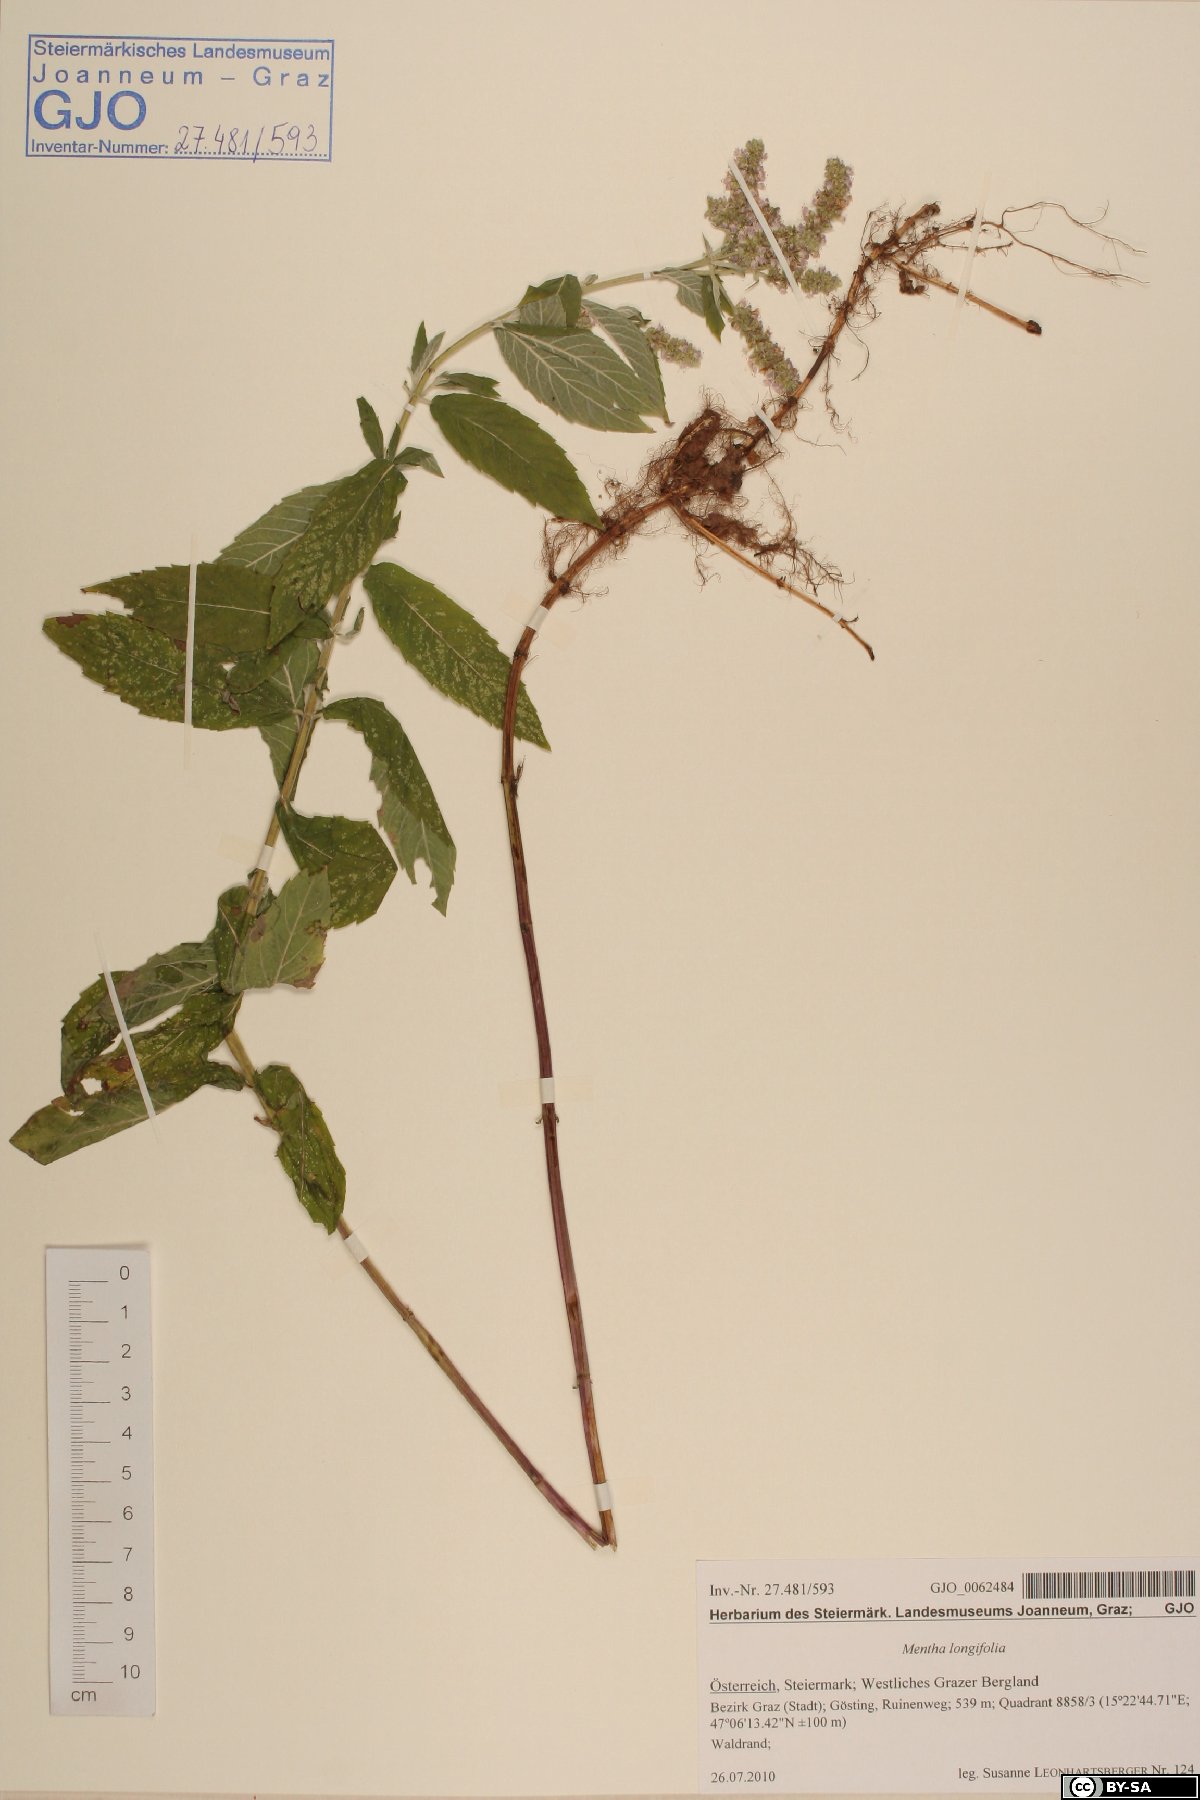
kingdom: Plantae
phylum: Tracheophyta
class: Magnoliopsida
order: Lamiales
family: Lamiaceae
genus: Mentha
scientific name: Mentha longifolia
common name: Horse mint
